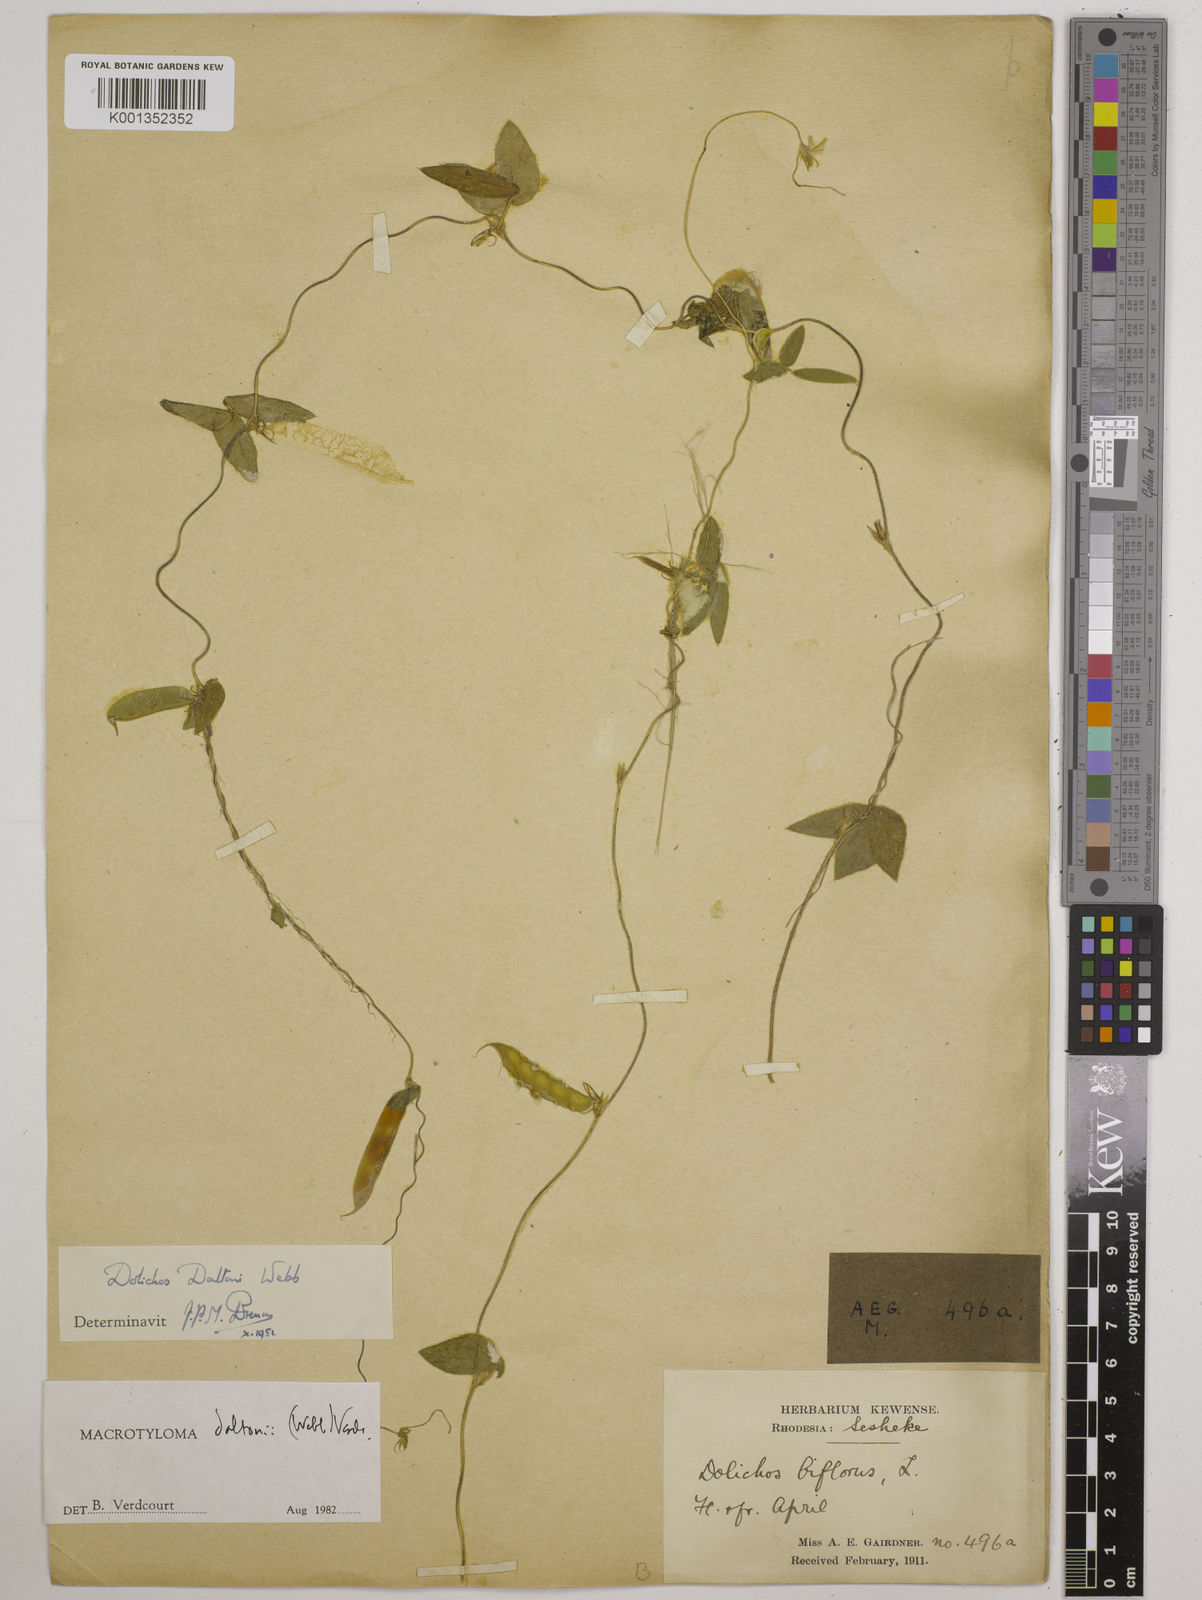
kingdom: Plantae
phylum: Tracheophyta
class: Magnoliopsida
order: Fabales
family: Fabaceae
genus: Macrotyloma
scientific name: Macrotyloma daltonii
